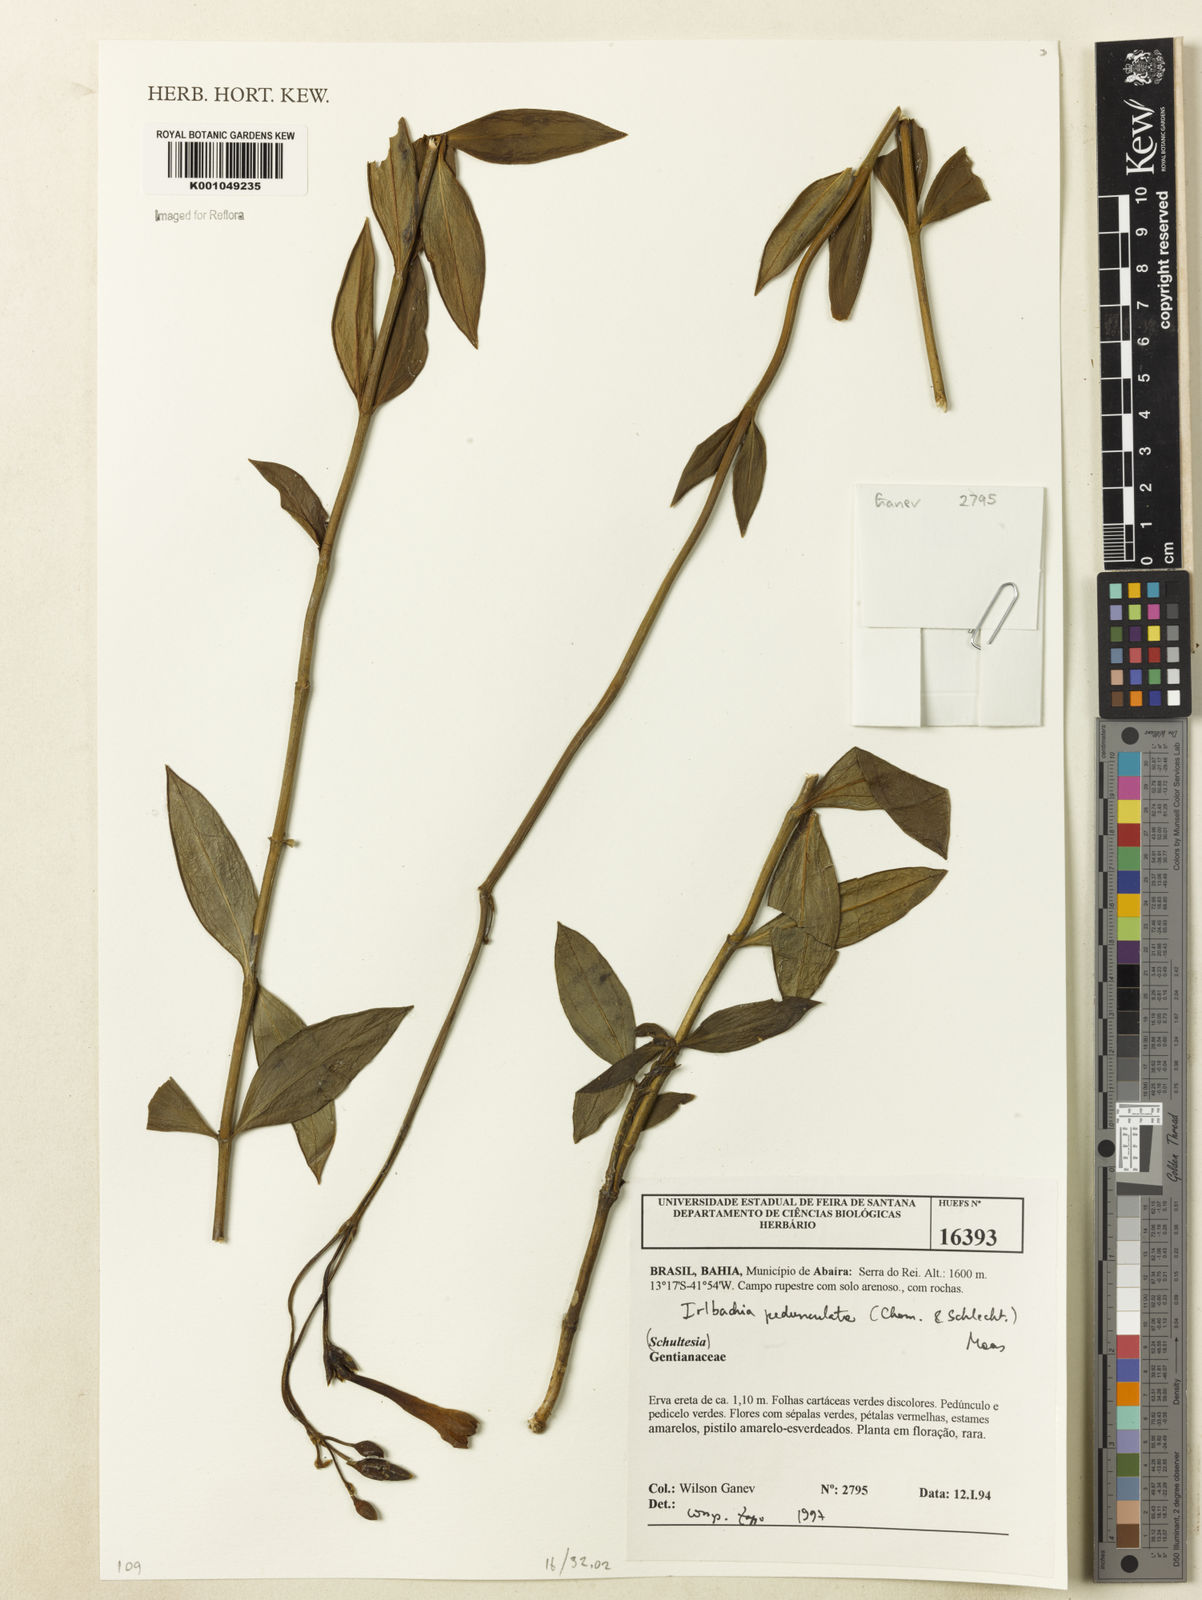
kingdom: Plantae
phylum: Tracheophyta
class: Magnoliopsida
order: Gentianales
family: Gentianaceae
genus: Calolisianthus
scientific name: Calolisianthus pedunculatus
